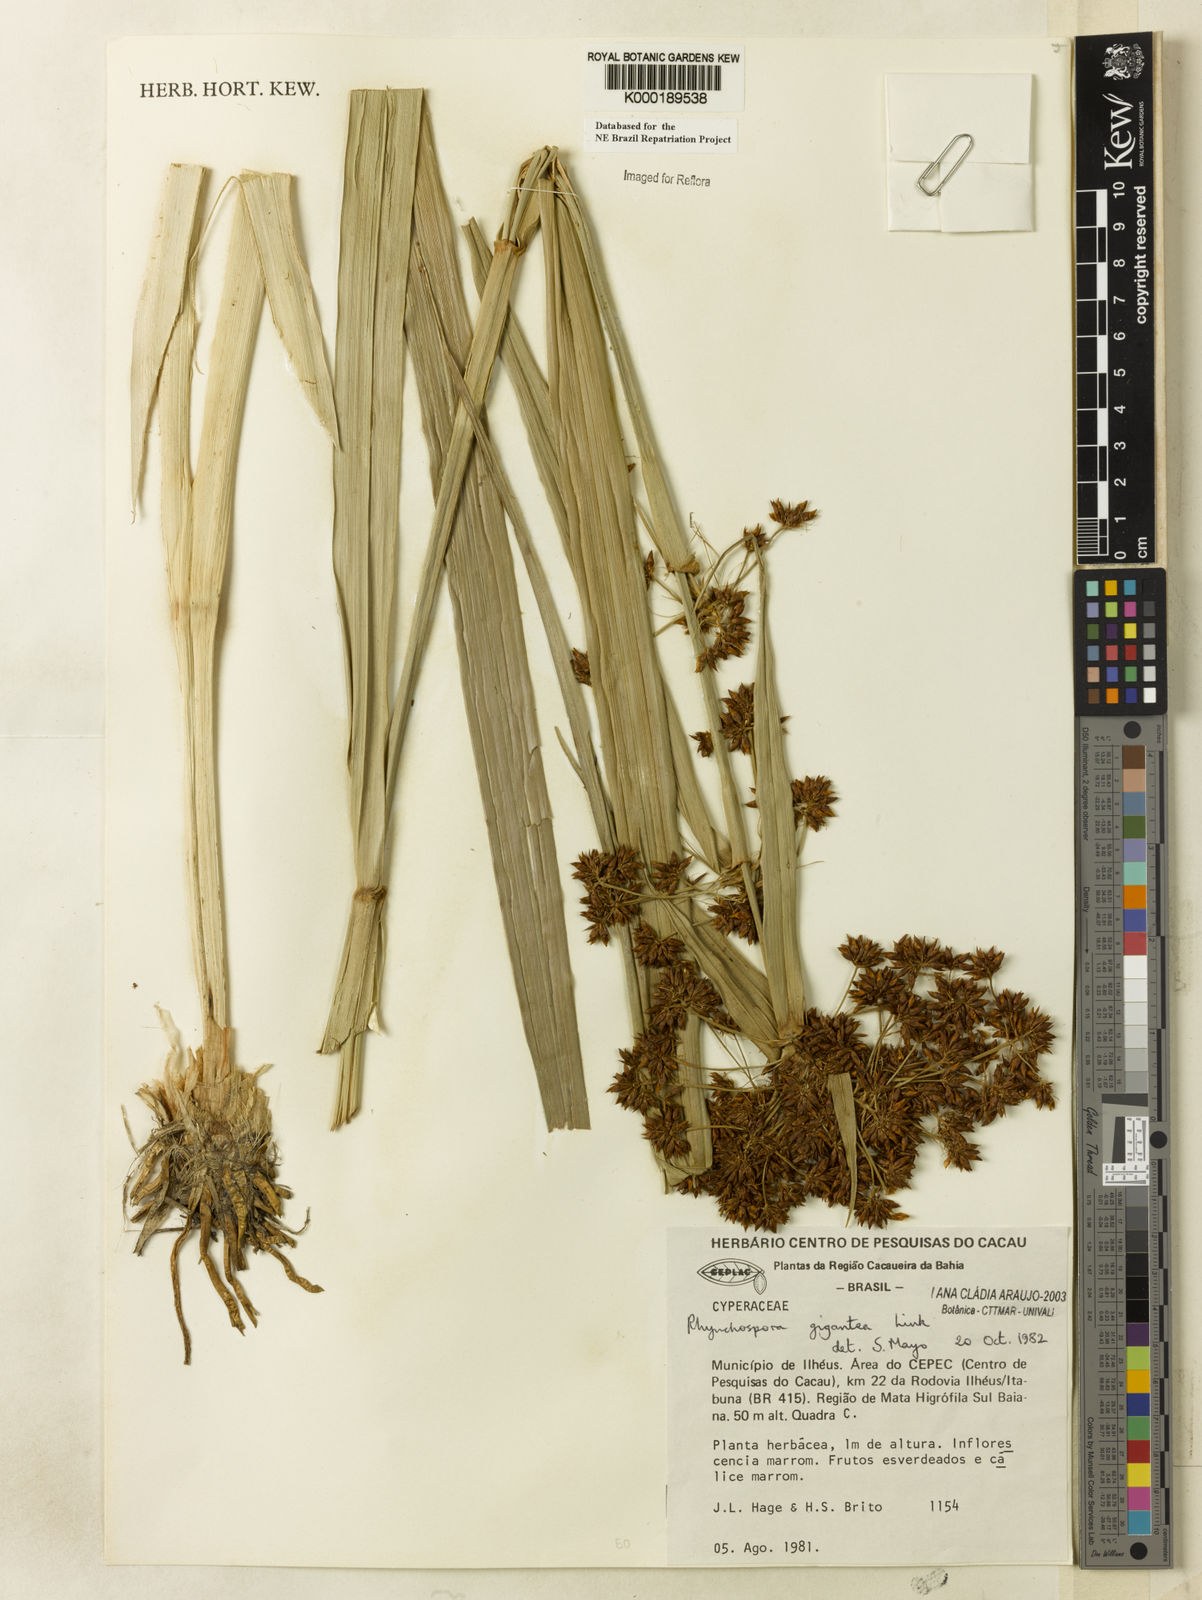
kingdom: Plantae
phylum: Tracheophyta
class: Liliopsida
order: Poales
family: Cyperaceae
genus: Rhynchospora
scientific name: Rhynchospora gigantea
